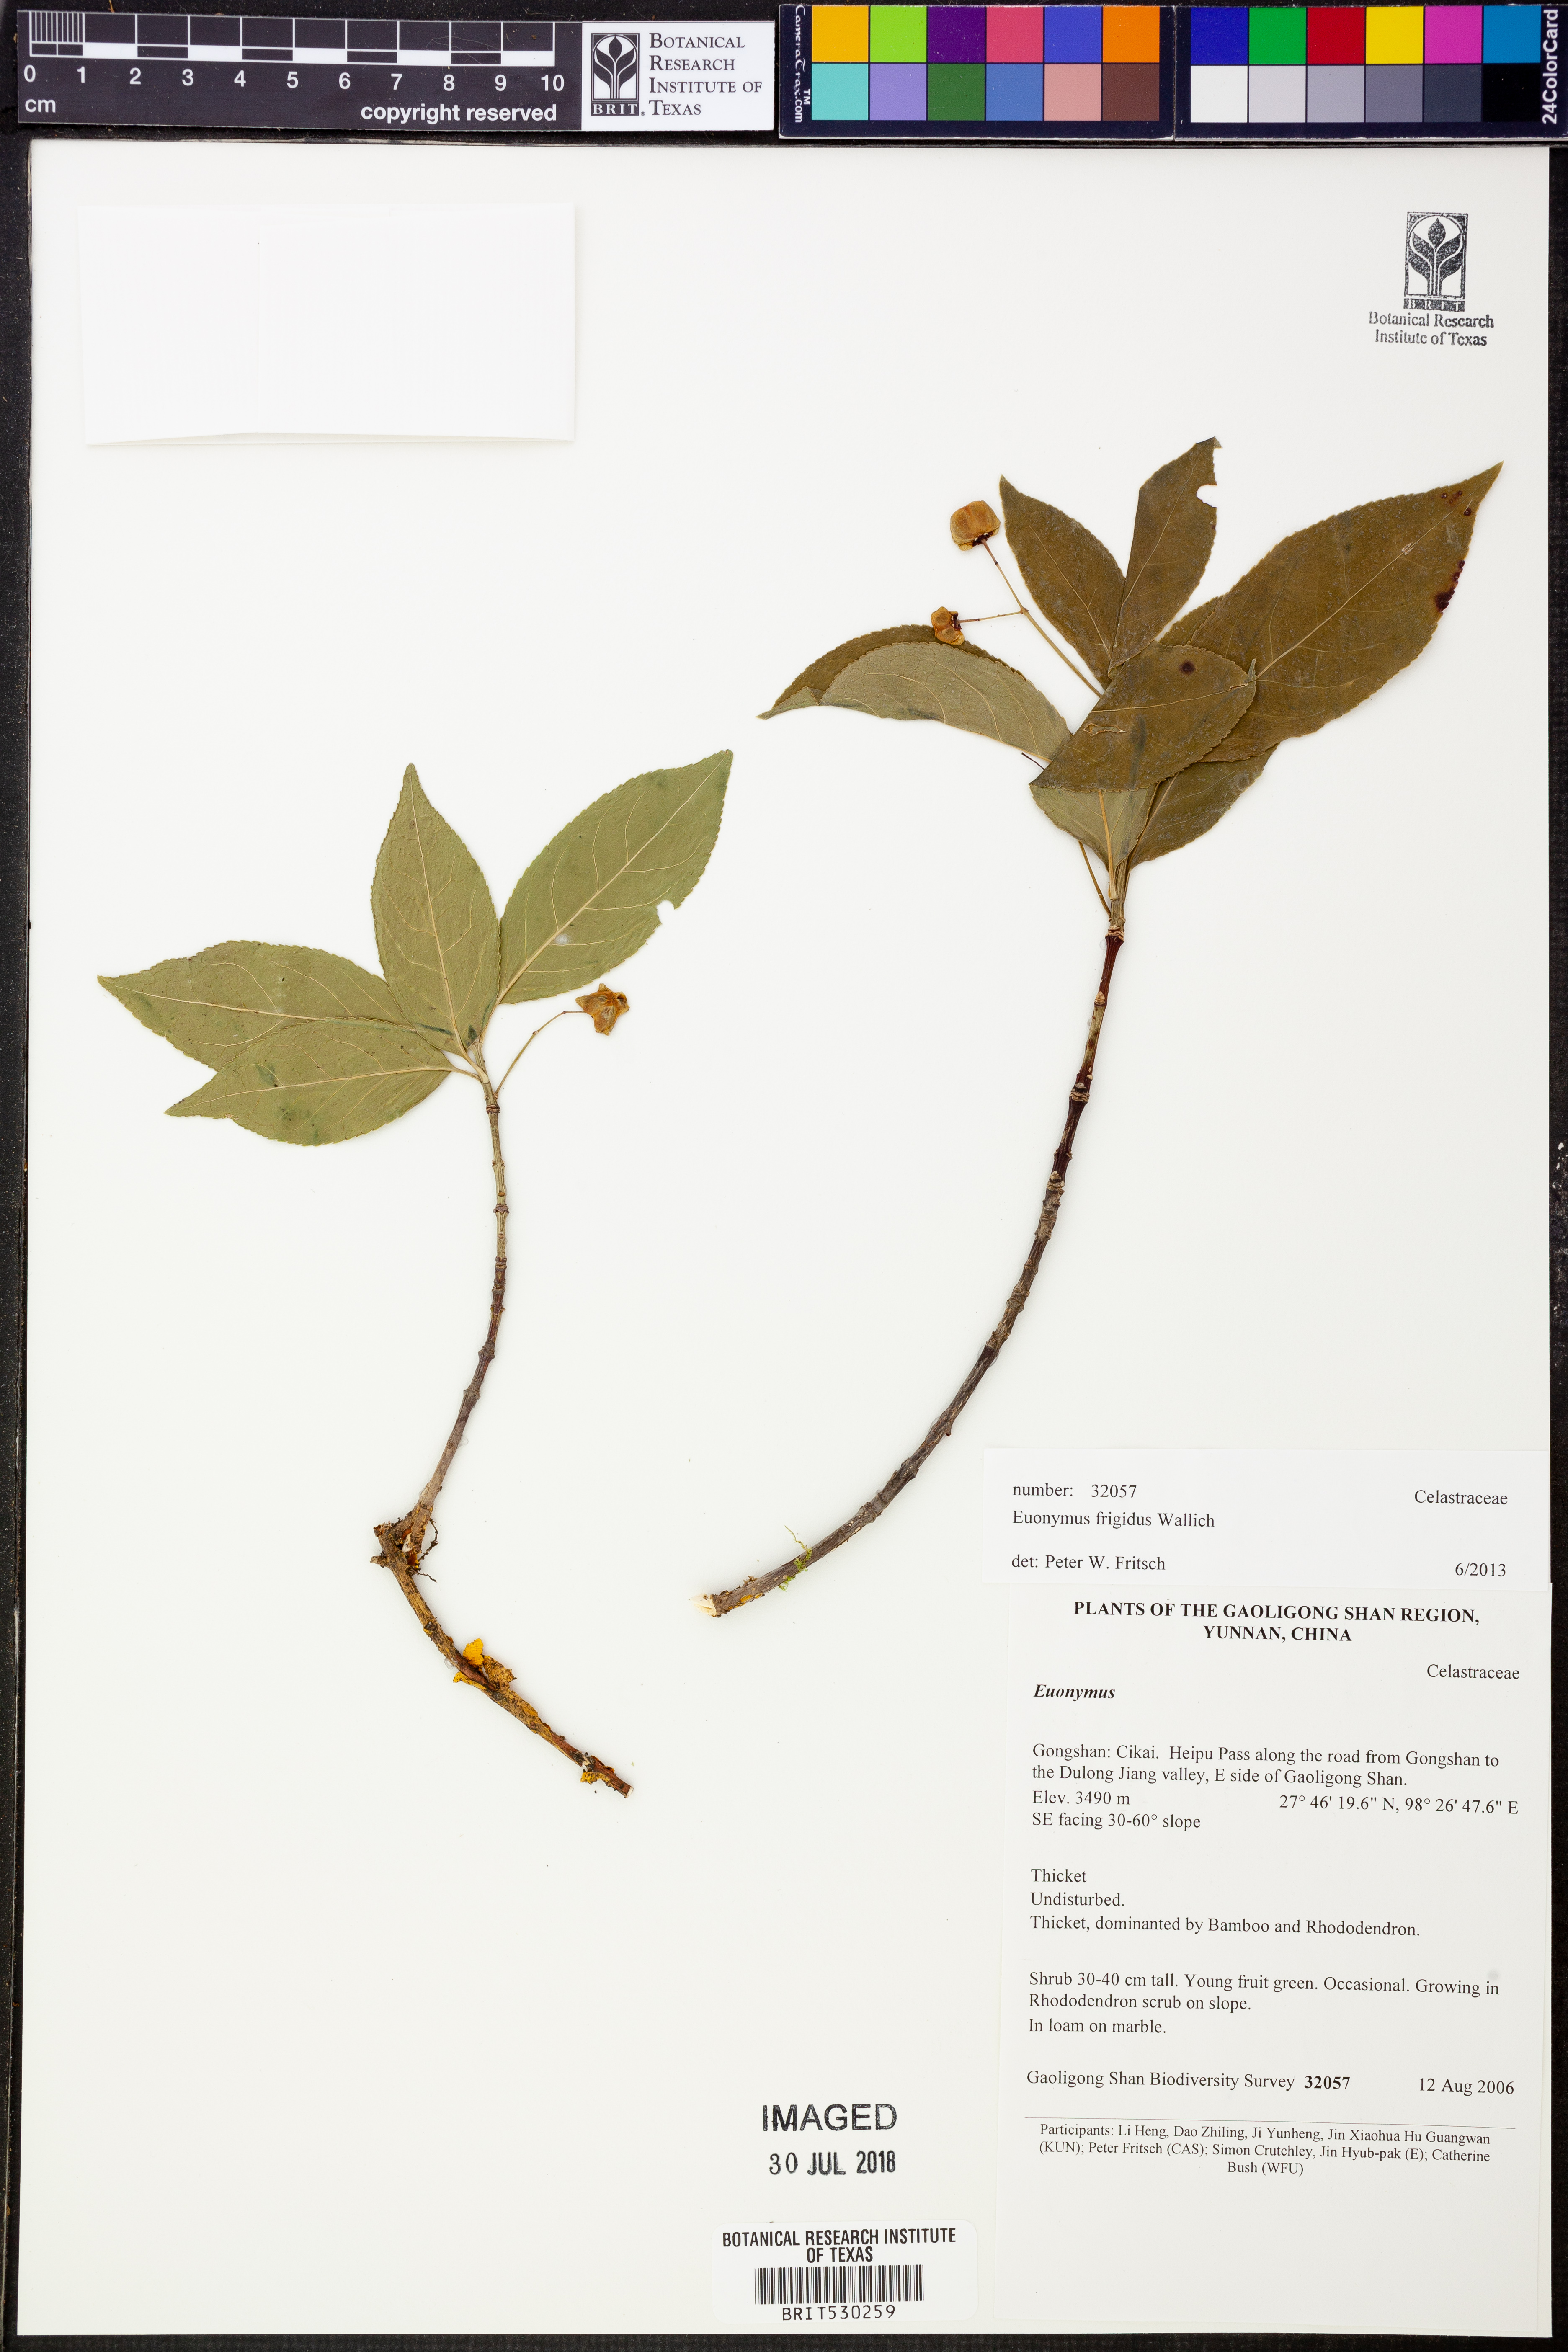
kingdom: Plantae
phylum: Tracheophyta
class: Magnoliopsida
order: Celastrales
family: Celastraceae
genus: Euonymus
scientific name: Euonymus frigidus
